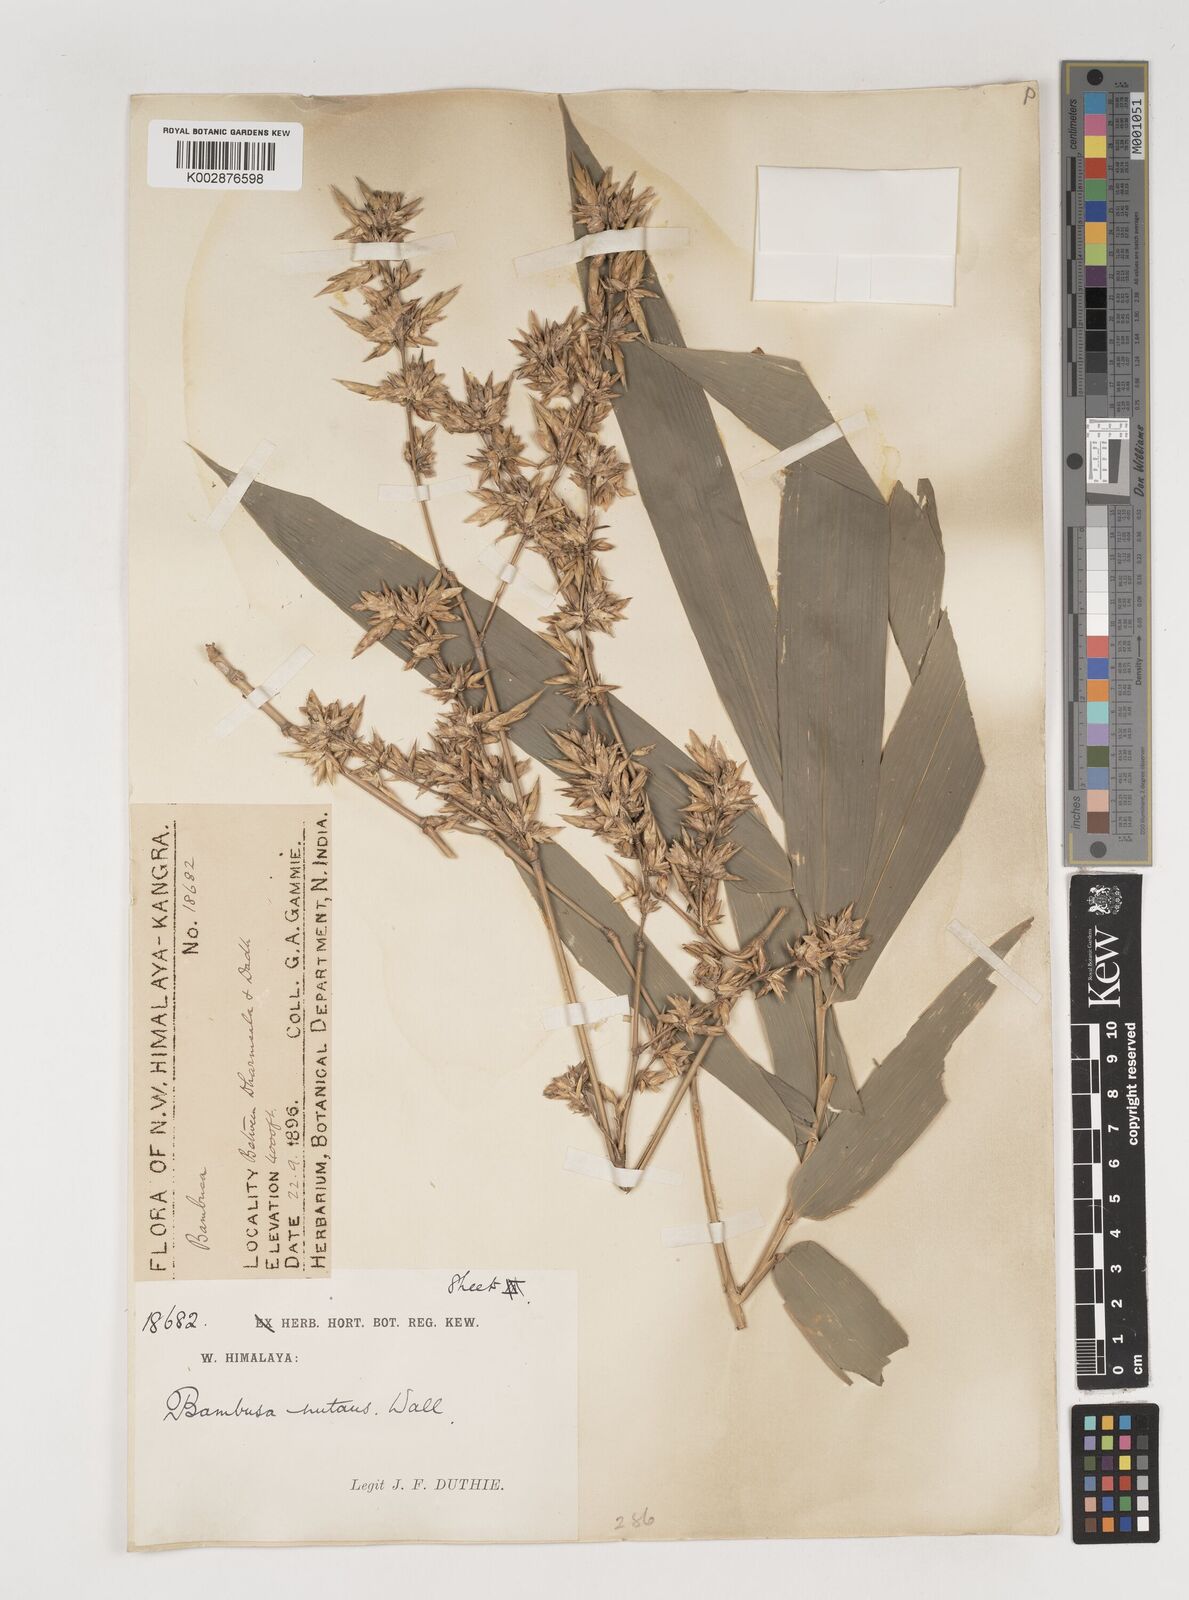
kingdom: Plantae
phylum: Tracheophyta
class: Liliopsida
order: Poales
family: Poaceae
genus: Bambusa
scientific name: Bambusa nutans
